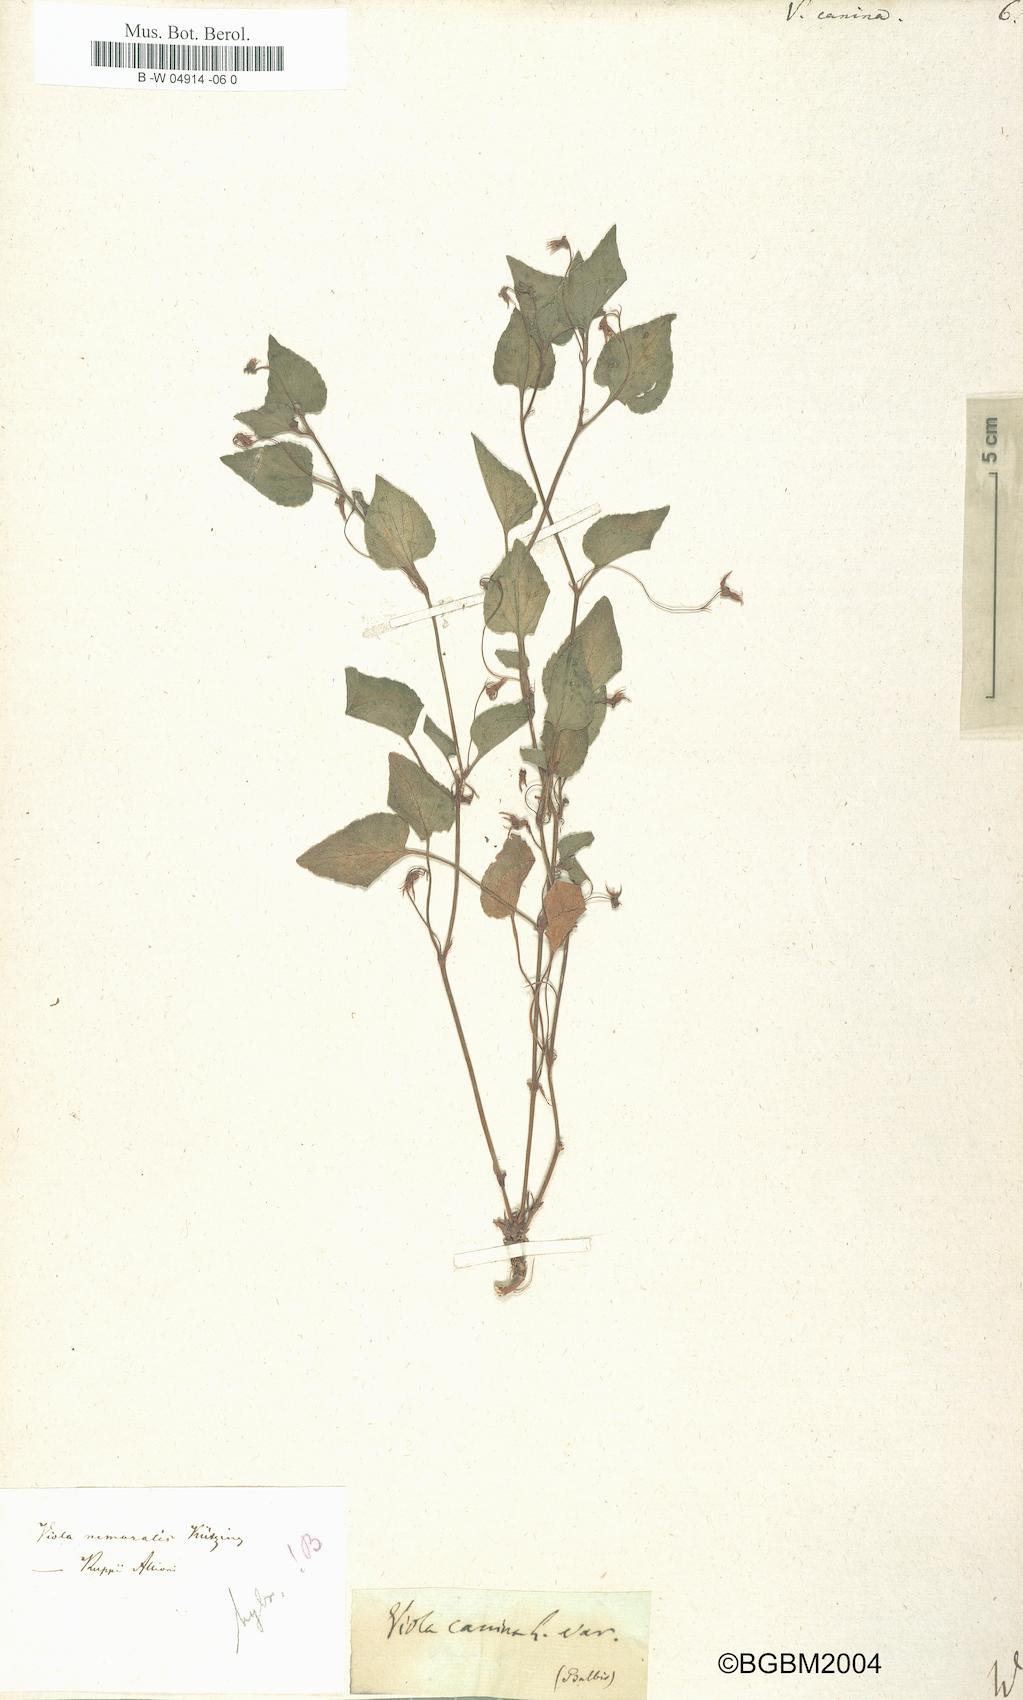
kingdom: Plantae
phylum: Tracheophyta
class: Magnoliopsida
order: Malpighiales
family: Violaceae
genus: Viola
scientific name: Viola canina
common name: Heath dog-violet
